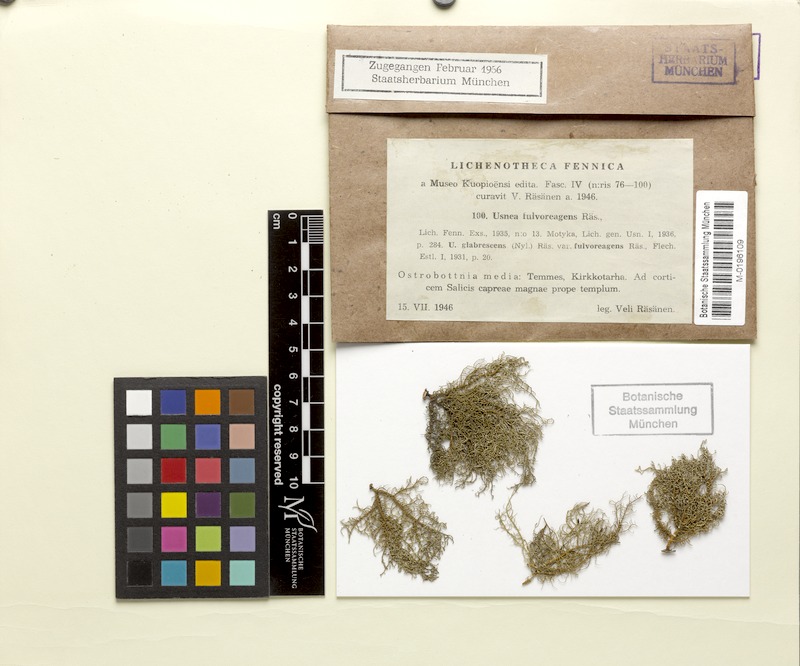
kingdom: Fungi
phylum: Ascomycota
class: Lecanoromycetes
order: Lecanorales
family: Parmeliaceae
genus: Usnea
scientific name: Usnea fulvoreagens
